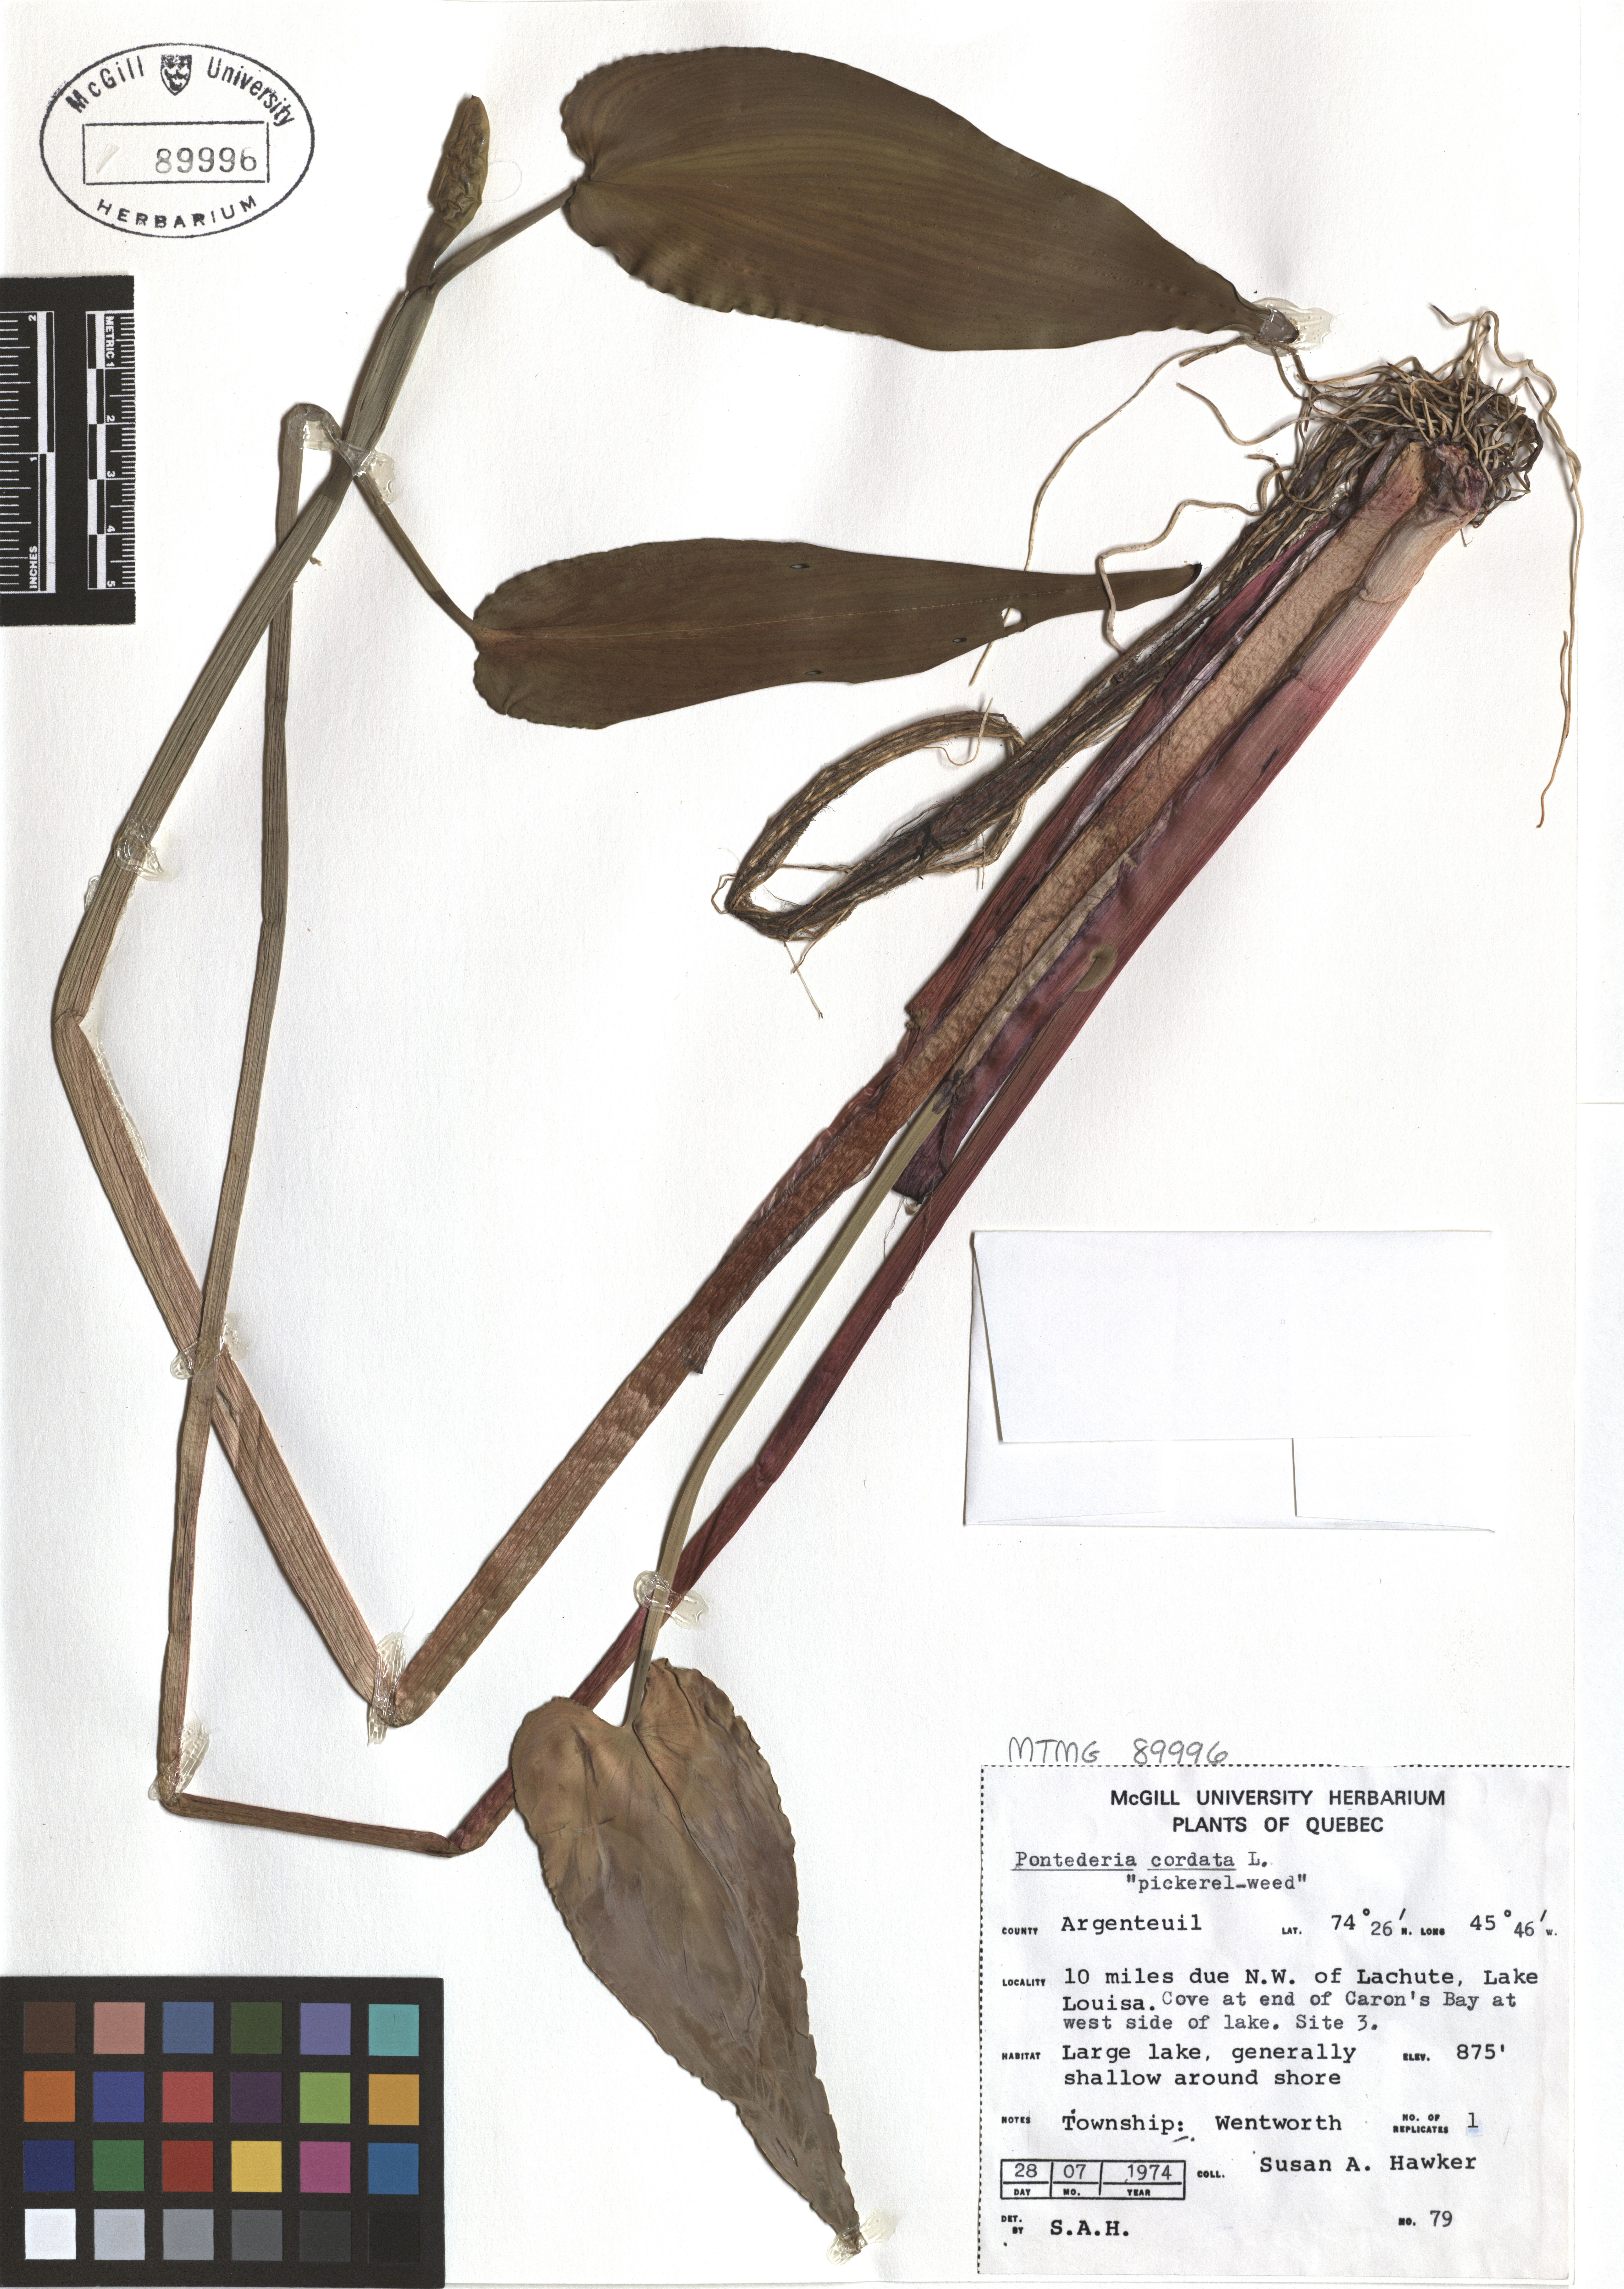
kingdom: Plantae
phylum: Tracheophyta
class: Liliopsida
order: Commelinales
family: Pontederiaceae
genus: Pontederia
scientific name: Pontederia cordata
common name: Pickerelweed
